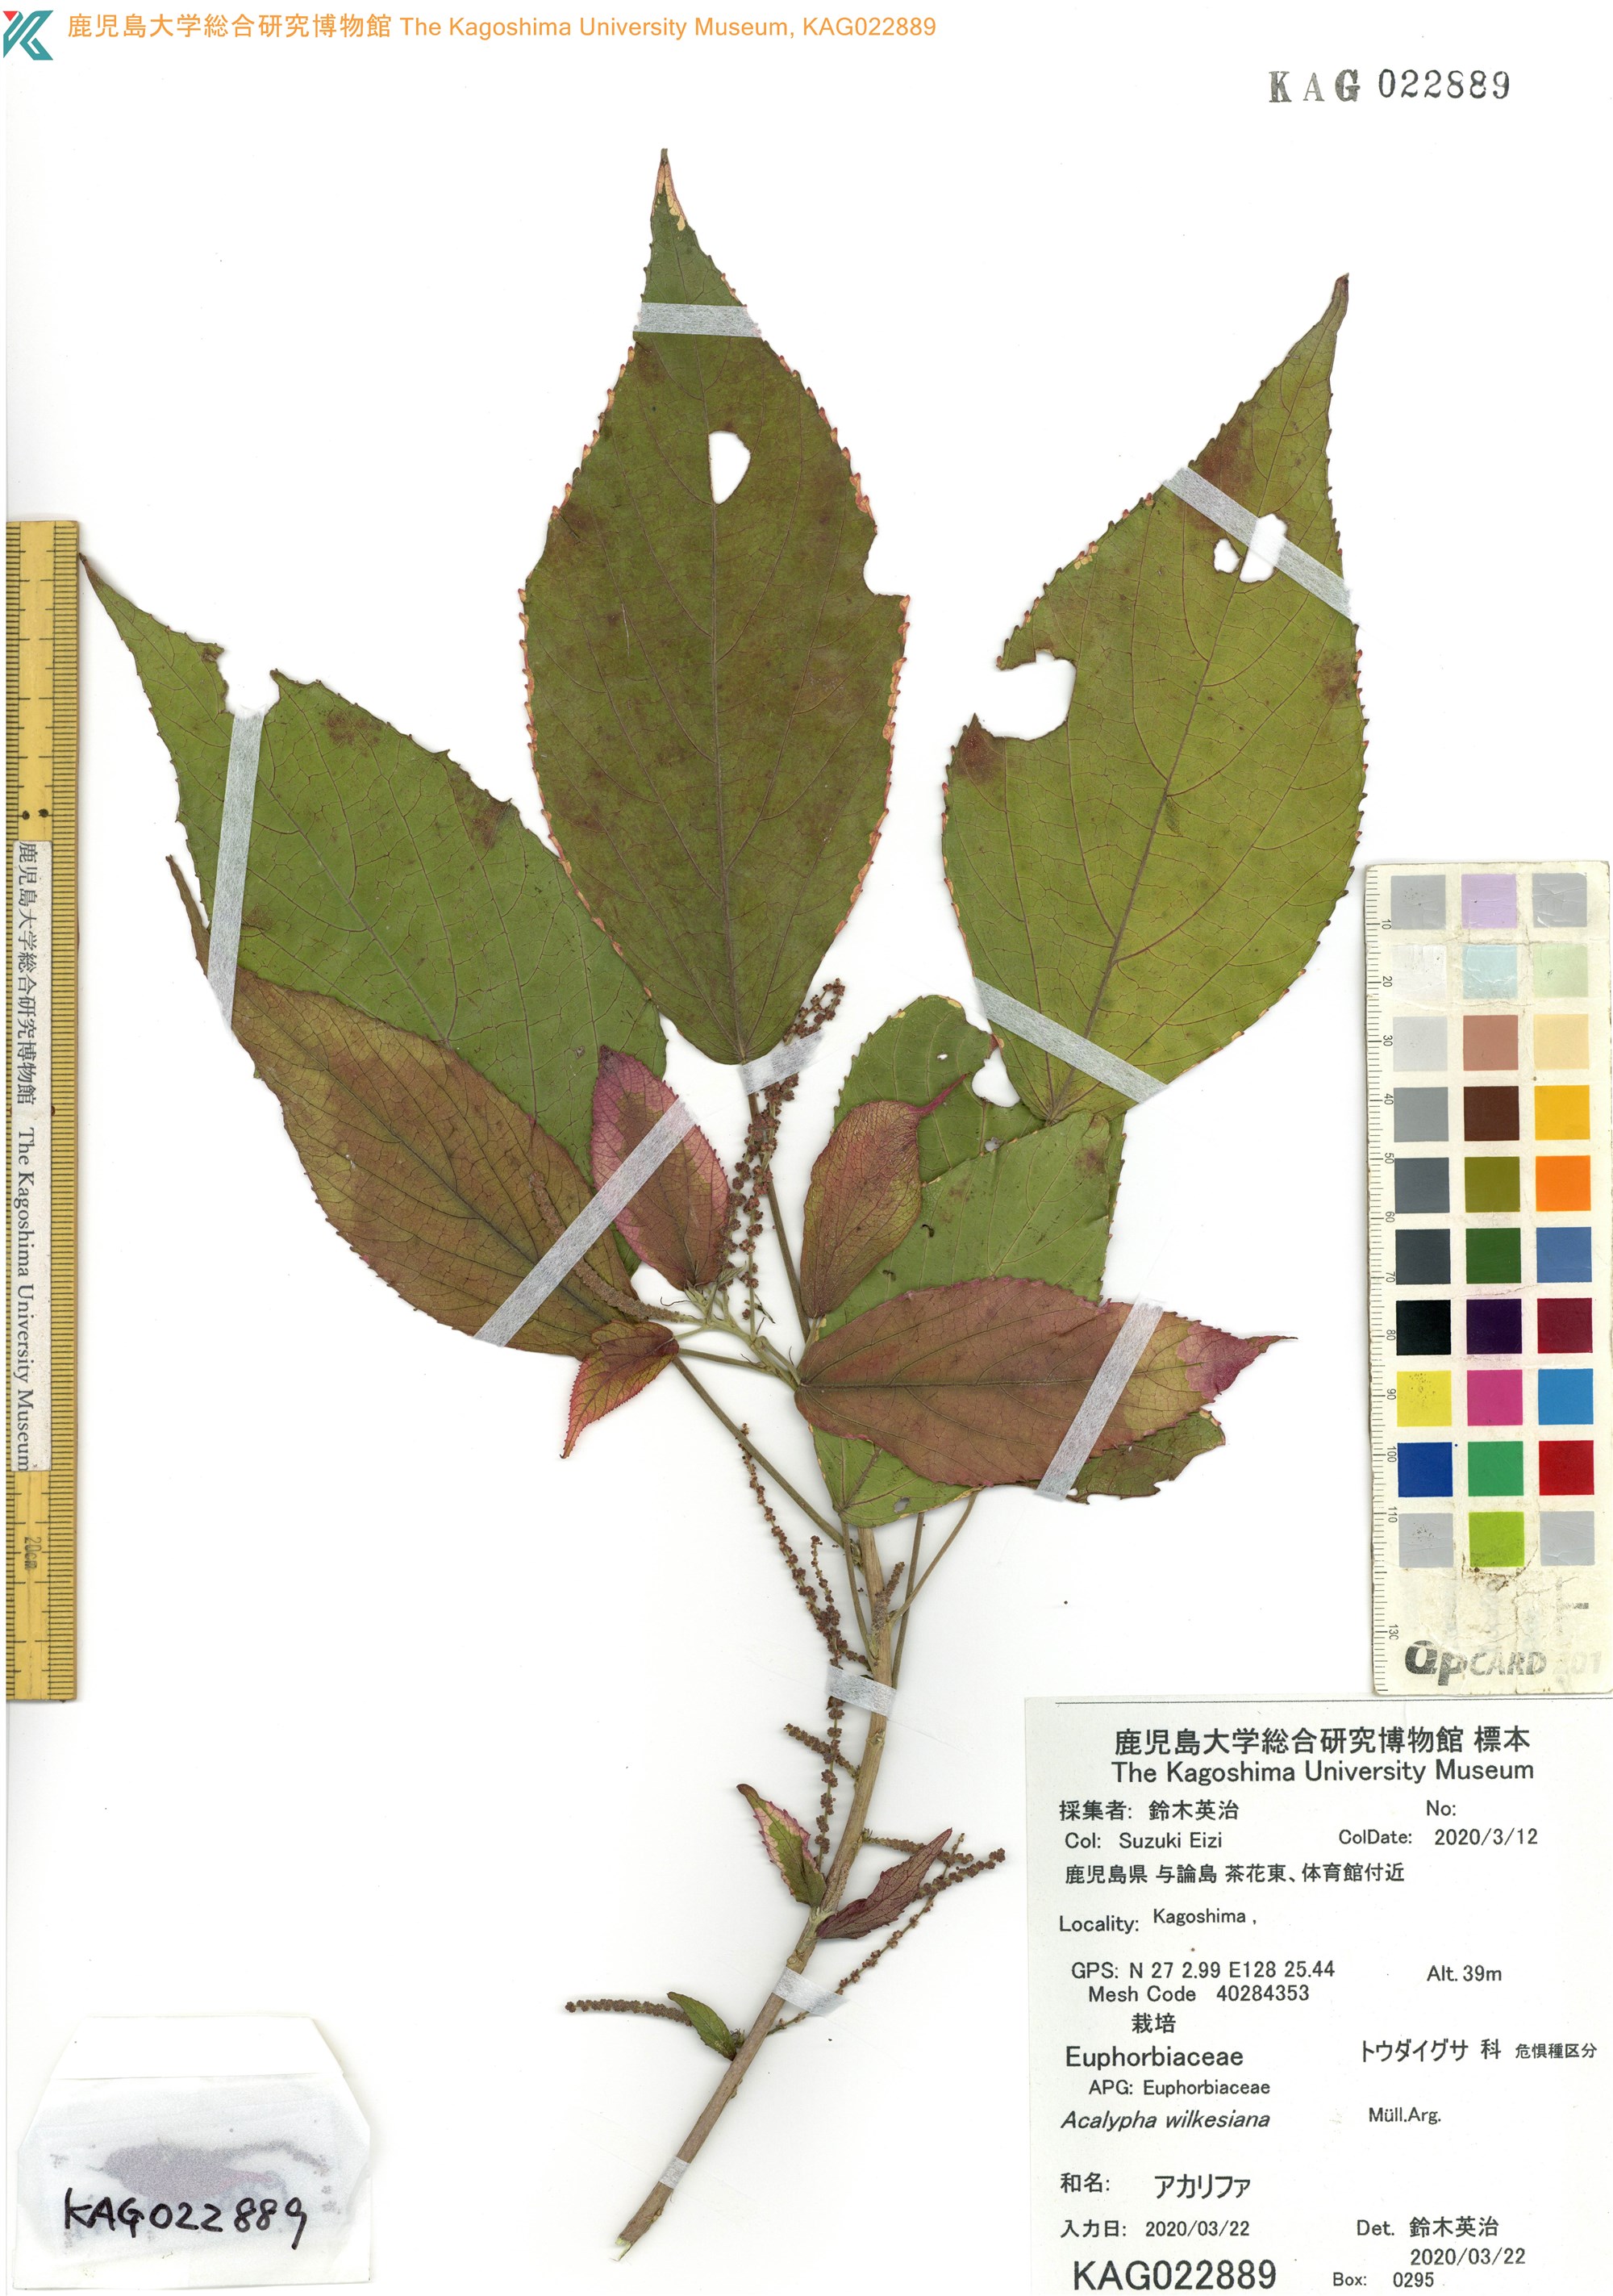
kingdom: Plantae
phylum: Tracheophyta
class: Magnoliopsida
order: Malpighiales
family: Euphorbiaceae
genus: Acalypha
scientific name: Acalypha wilkesiana
